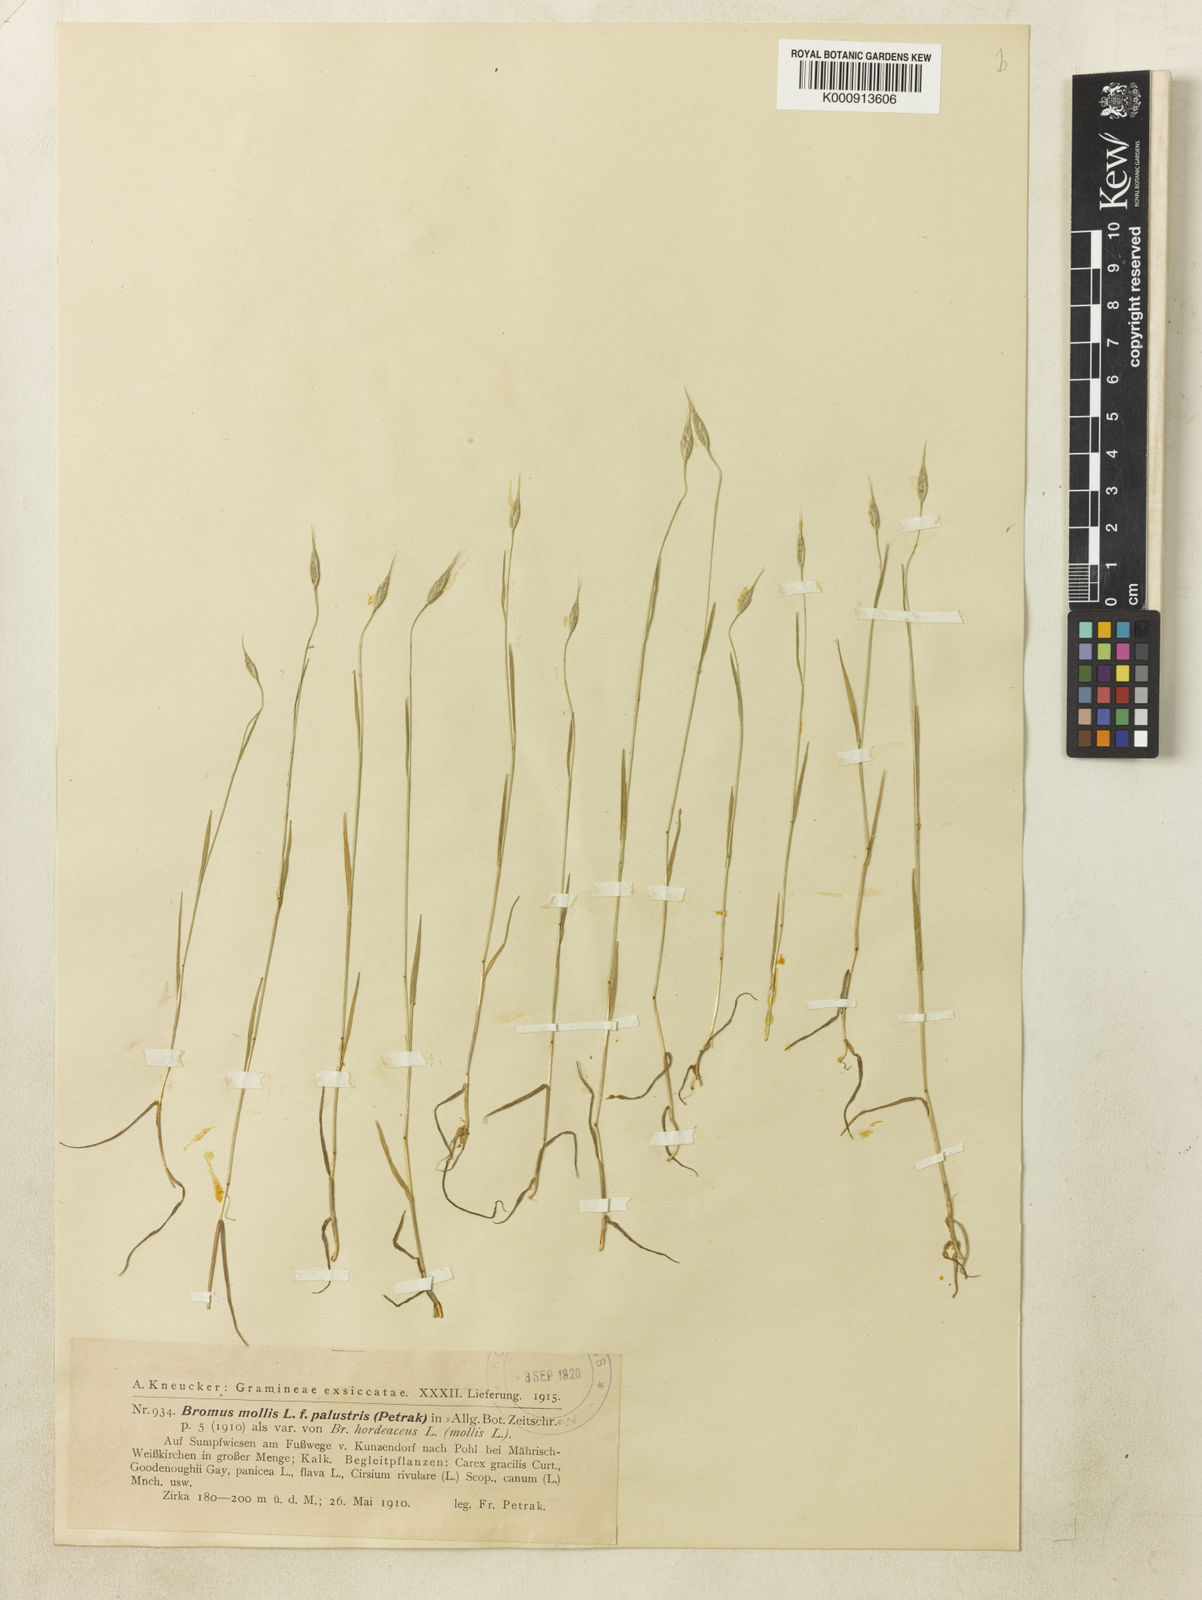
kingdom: Plantae
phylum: Tracheophyta
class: Liliopsida
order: Poales
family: Poaceae
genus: Bromus
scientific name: Bromus hordeaceus
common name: Soft brome
